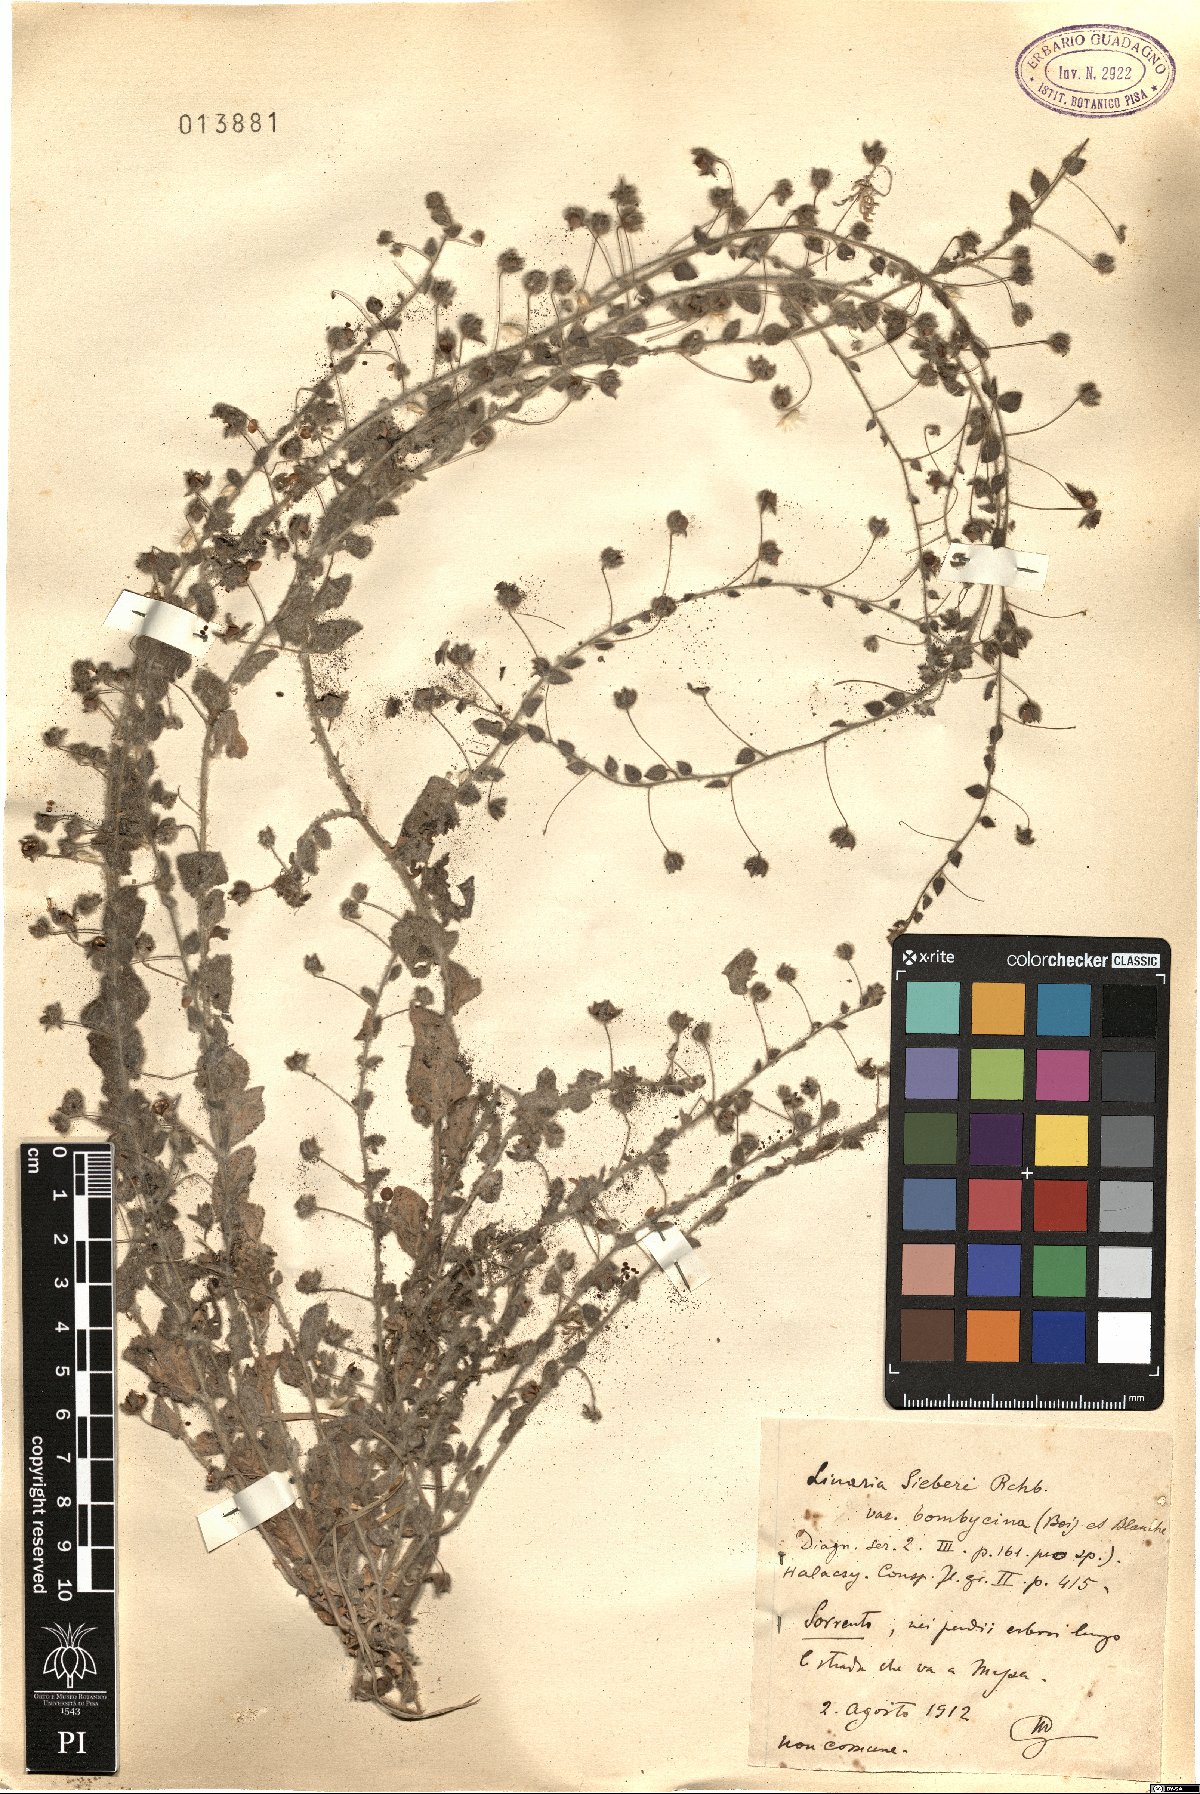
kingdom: Plantae
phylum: Tracheophyta
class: Magnoliopsida
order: Lamiales
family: Plantaginaceae
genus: Kickxia
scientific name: Kickxia elatine
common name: Sharp-leaved fluellen
